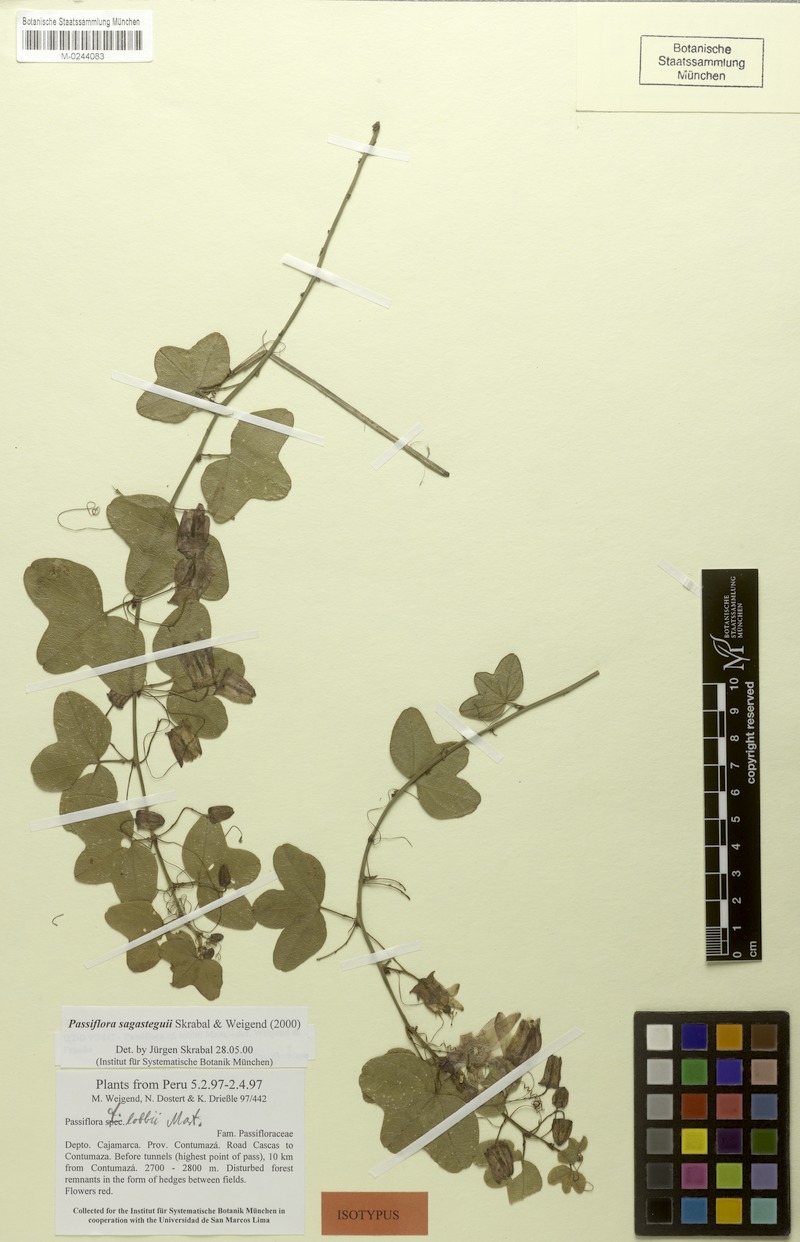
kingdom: Plantae
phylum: Tracheophyta
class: Magnoliopsida
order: Malpighiales
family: Passifloraceae
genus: Passiflora
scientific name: Passiflora sagasteguii
